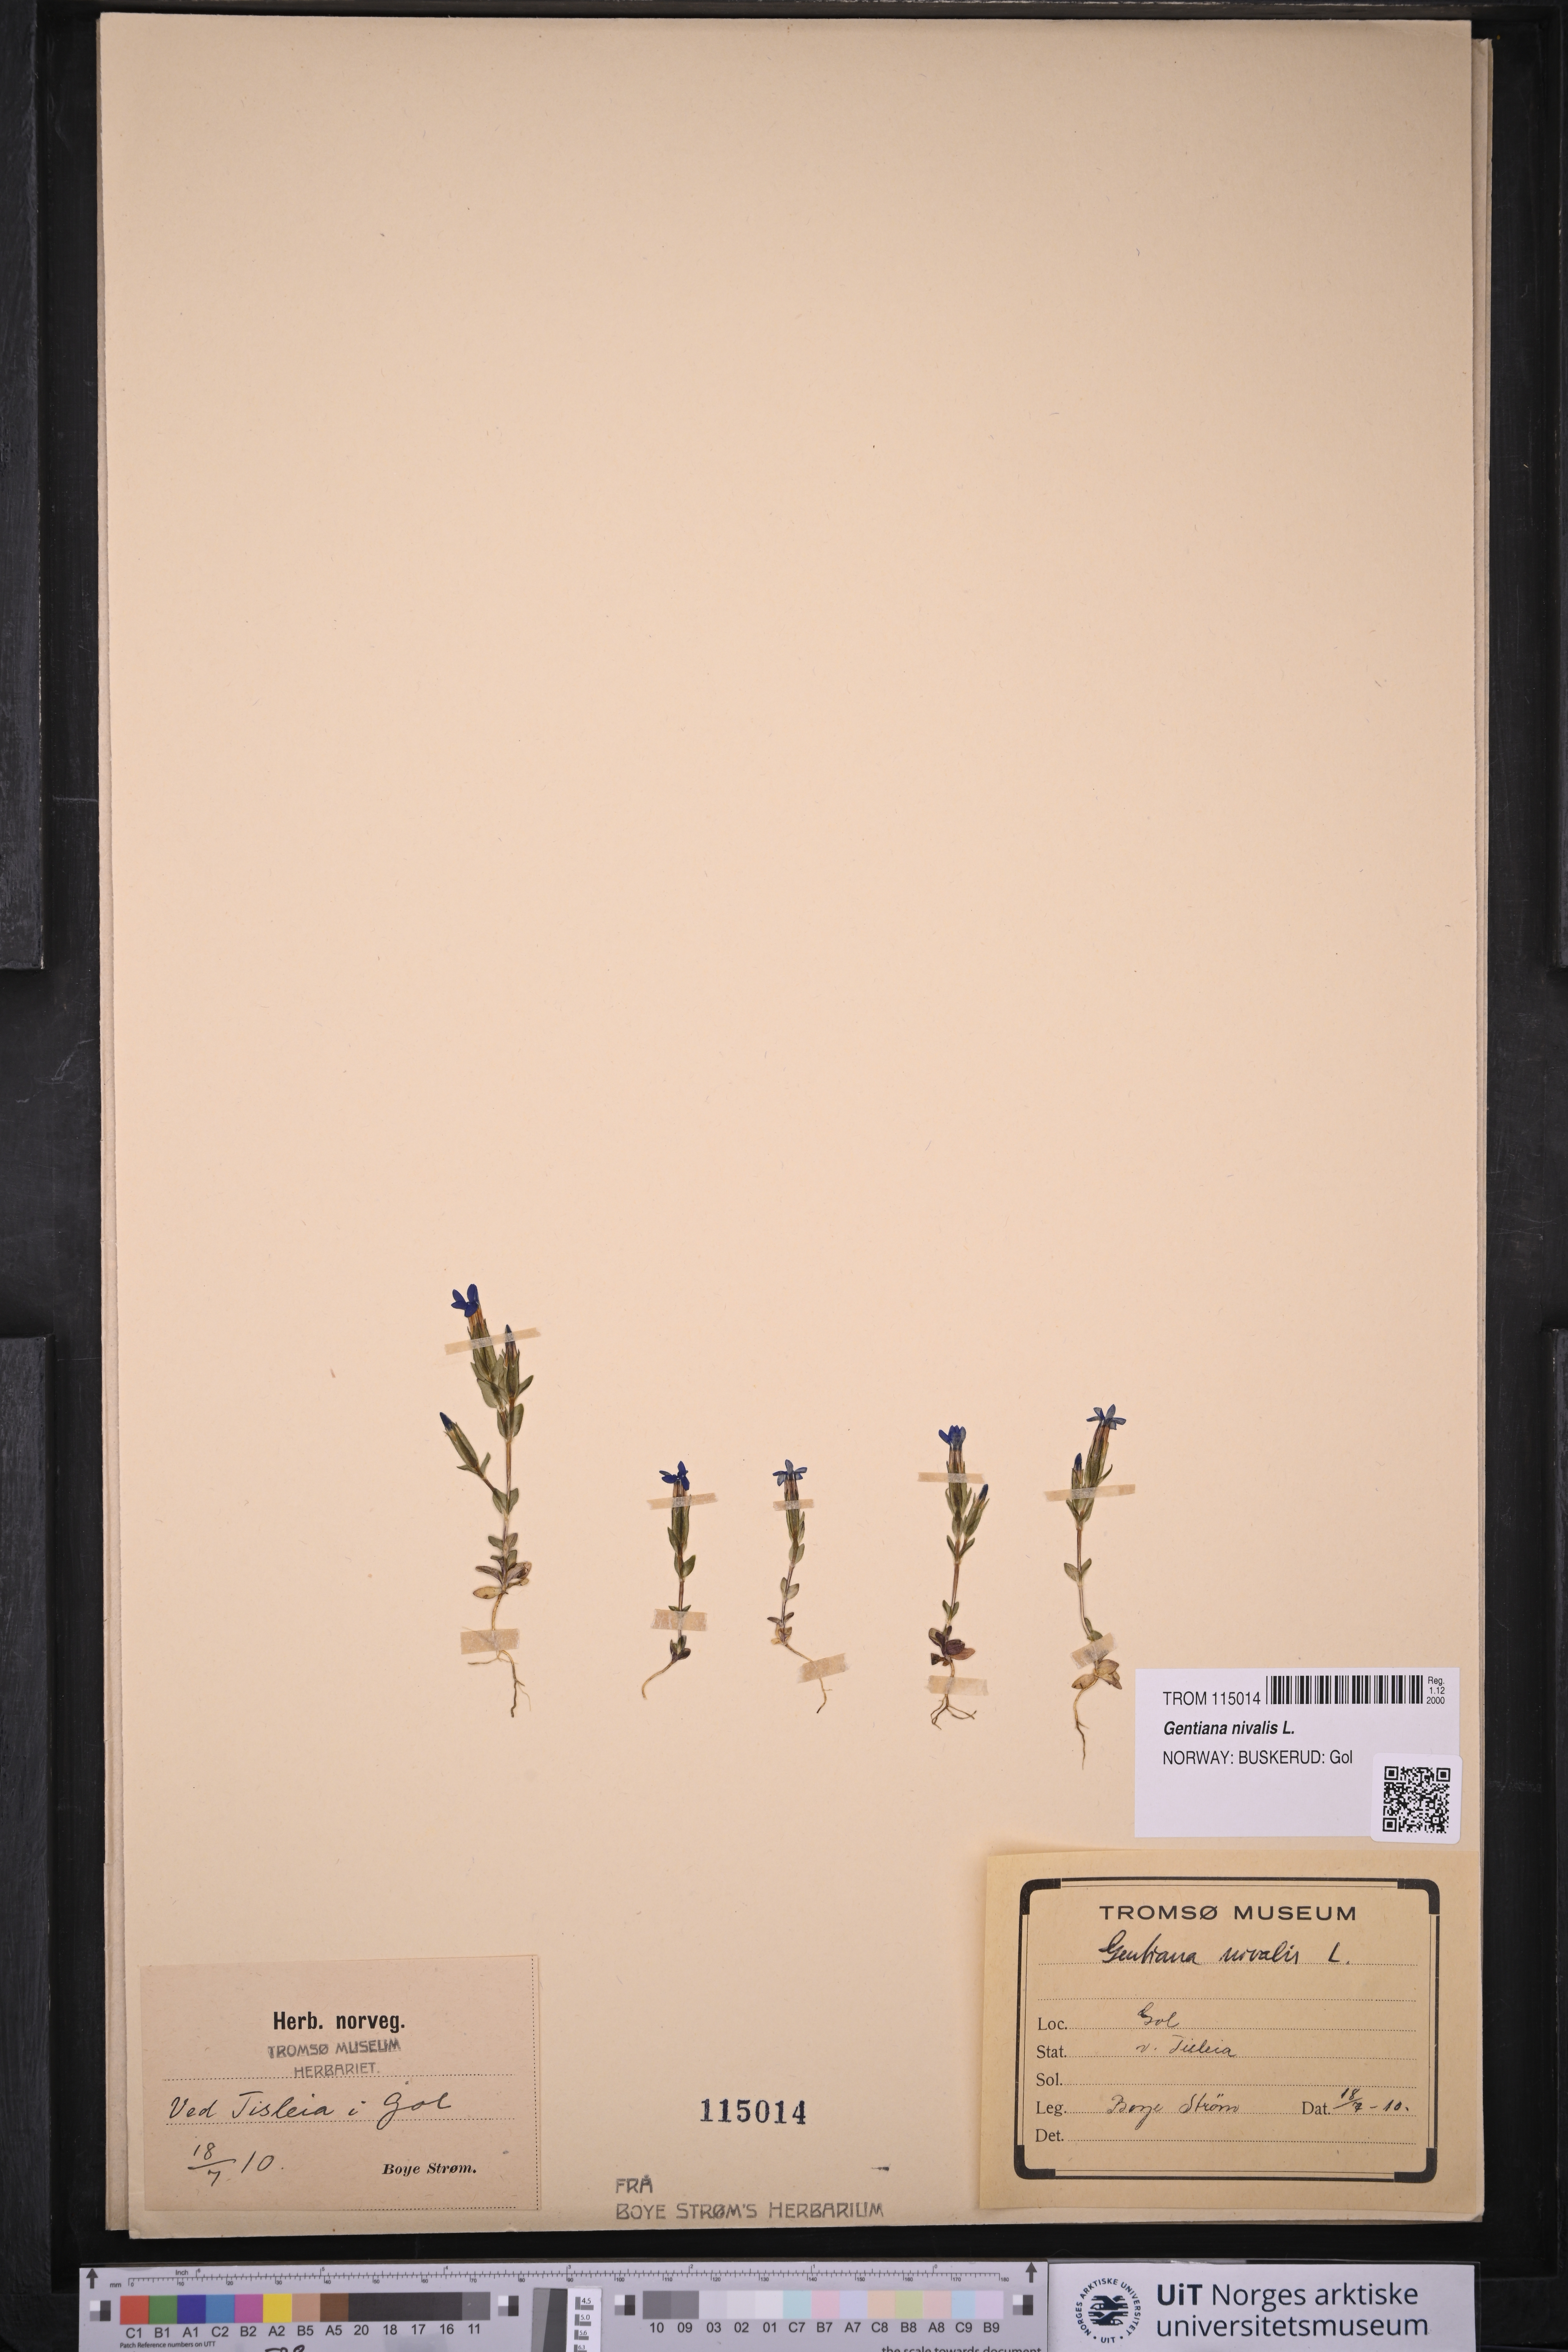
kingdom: Plantae
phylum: Tracheophyta
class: Magnoliopsida
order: Gentianales
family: Gentianaceae
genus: Gentiana
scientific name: Gentiana nivalis
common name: Alpine gentian
